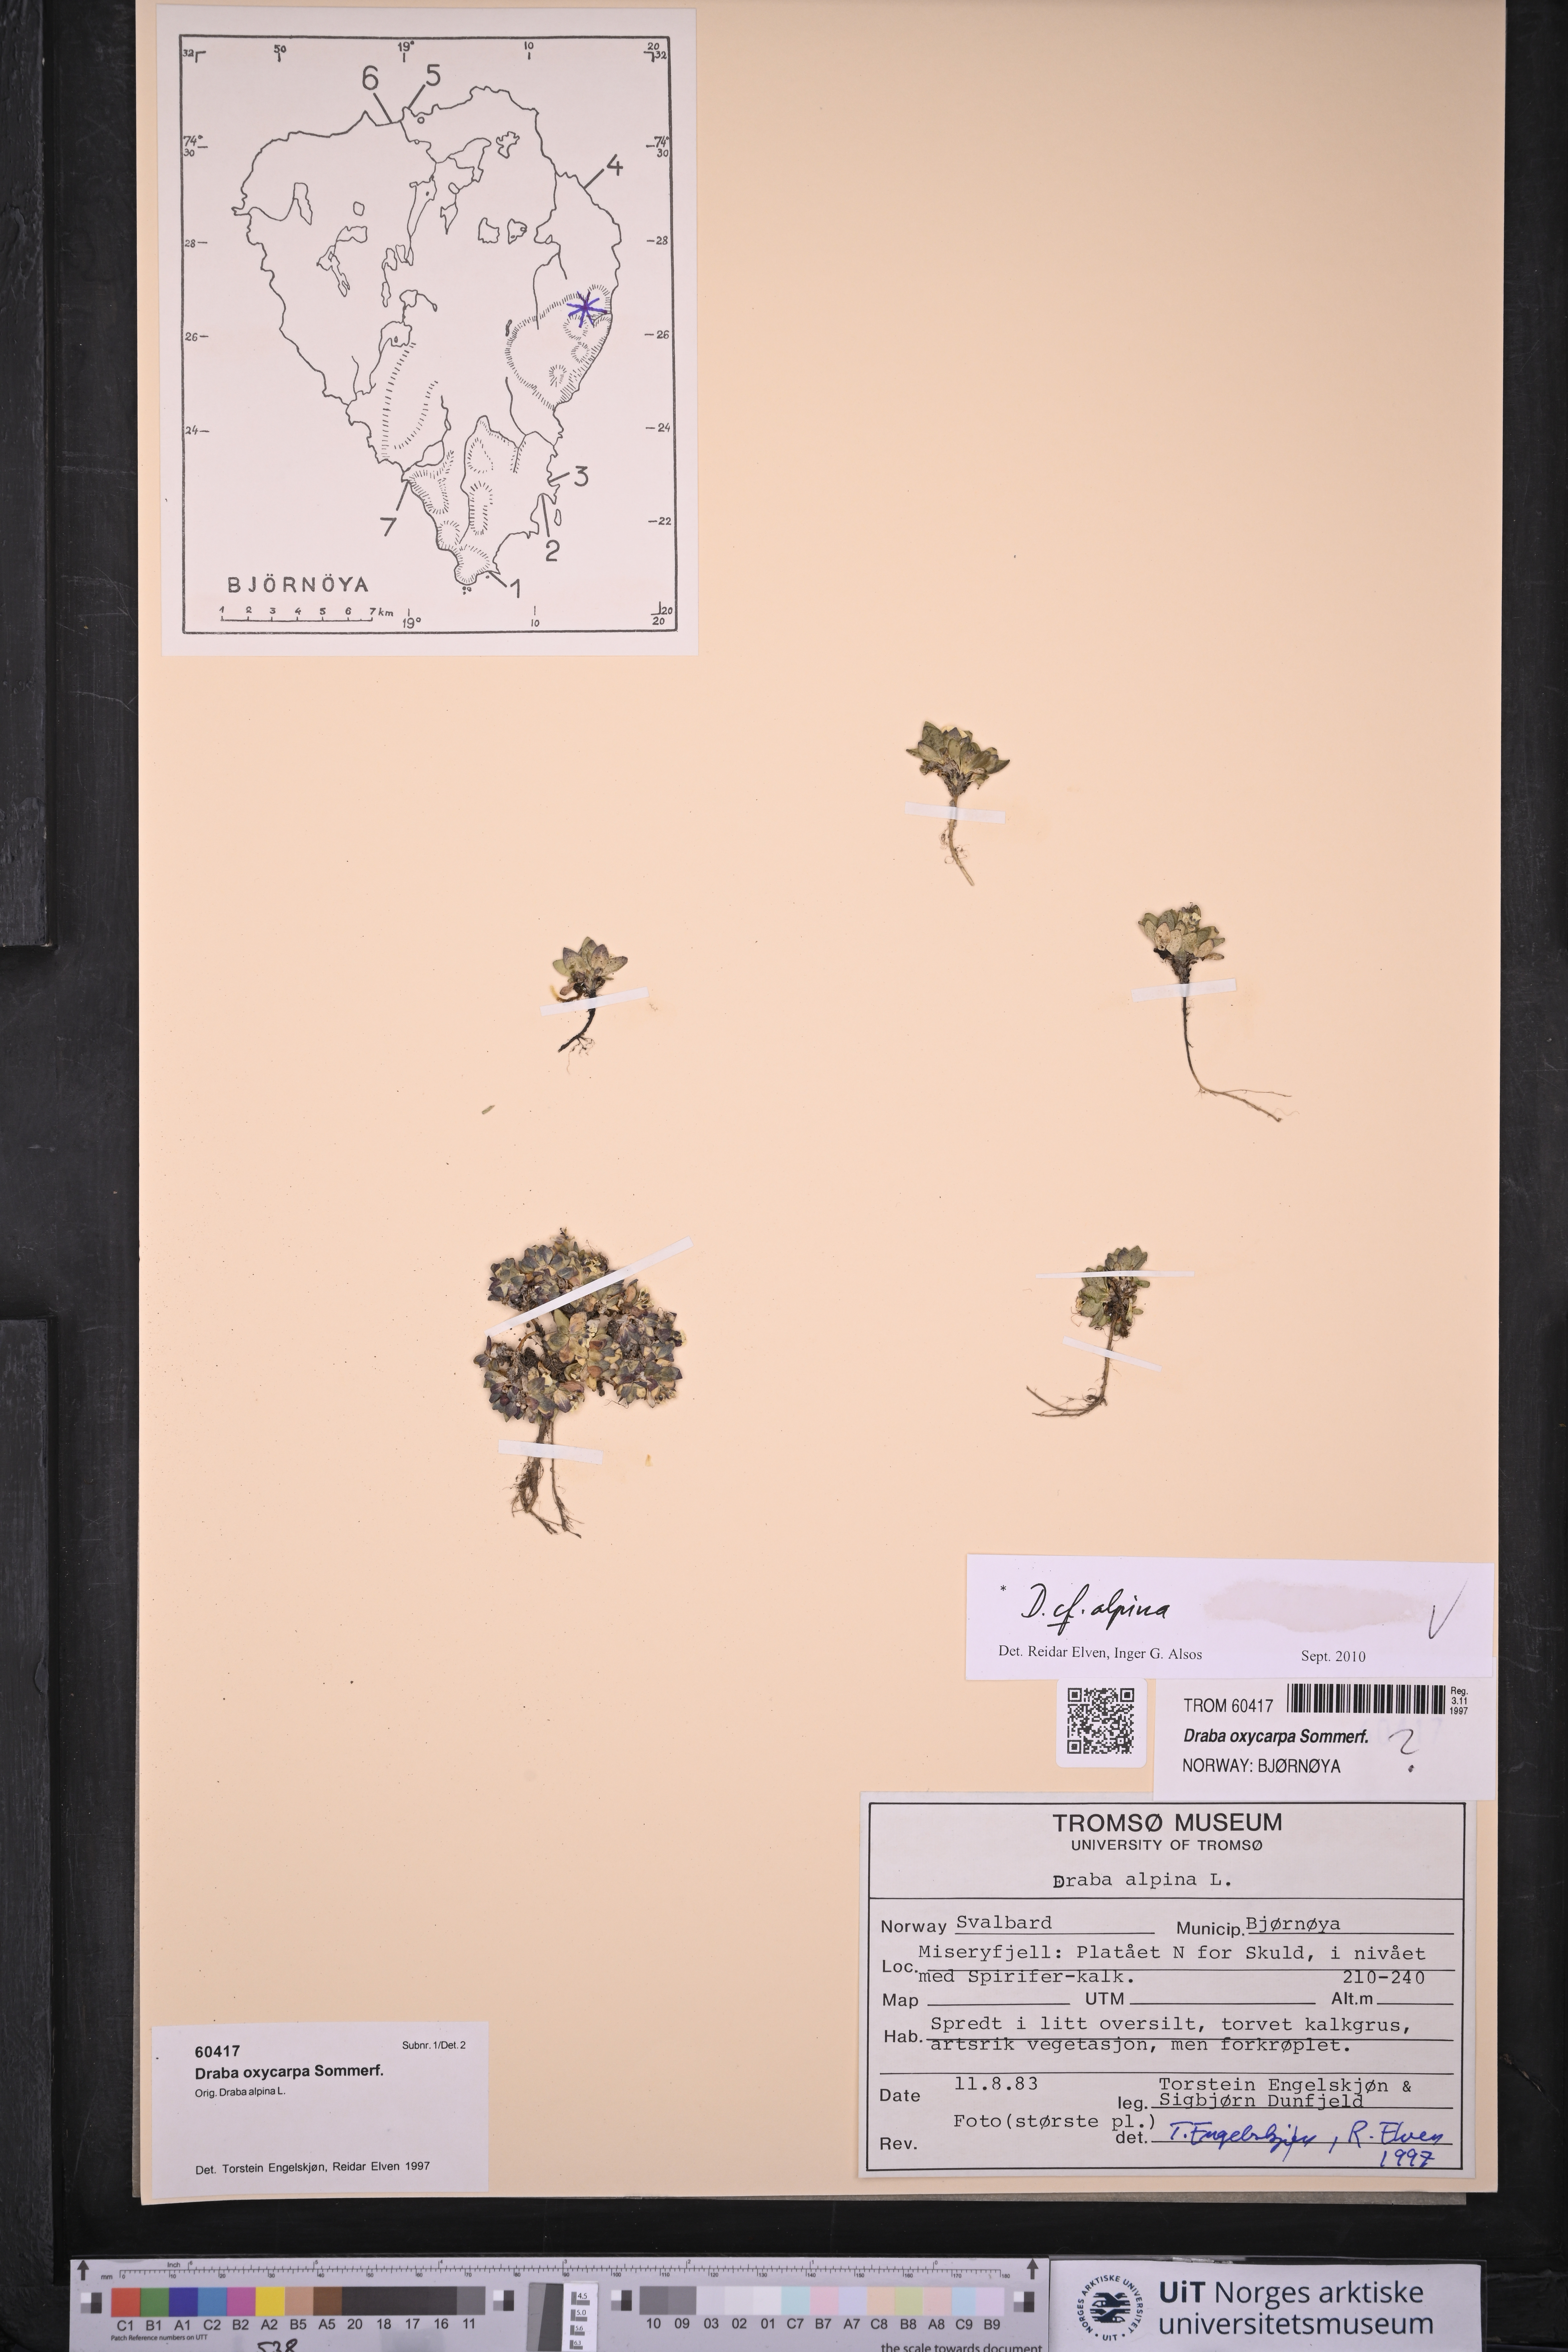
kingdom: Plantae
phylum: Tracheophyta
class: Magnoliopsida
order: Brassicales
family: Brassicaceae
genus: Draba
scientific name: Draba alpina
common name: Alpine draba
